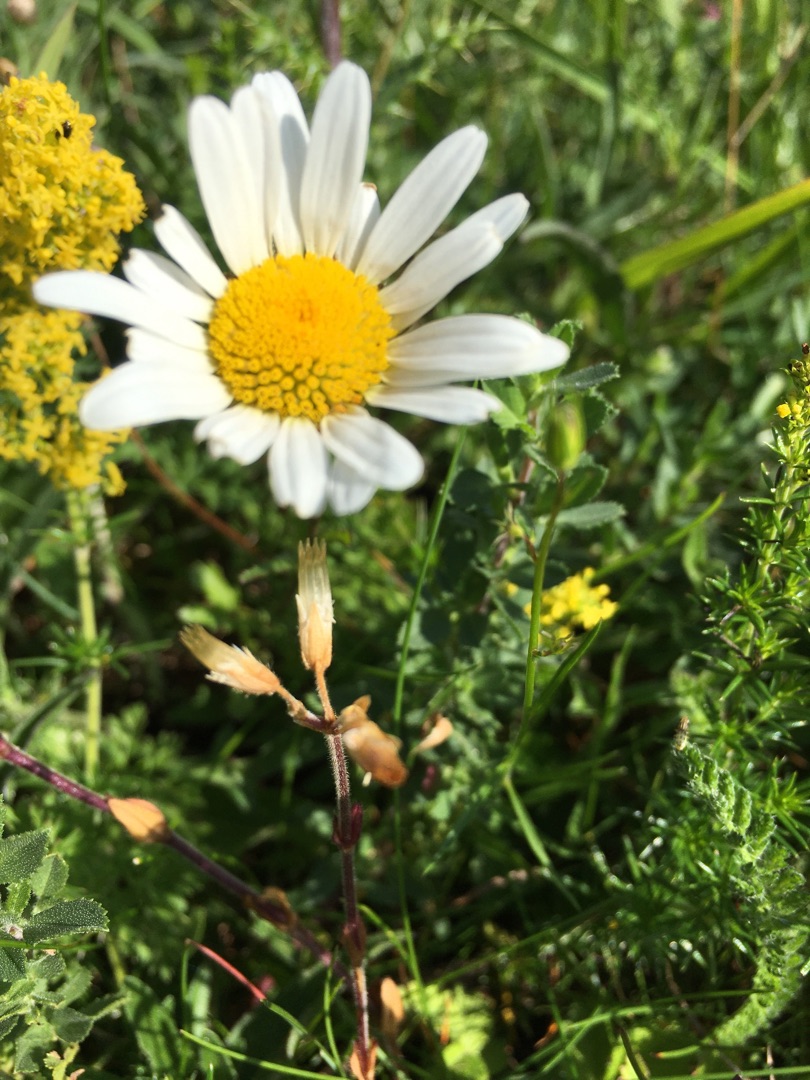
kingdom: Plantae
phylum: Tracheophyta
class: Magnoliopsida
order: Asterales
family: Asteraceae
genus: Leucanthemum
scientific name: Leucanthemum vulgare
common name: Hvid okseøje
